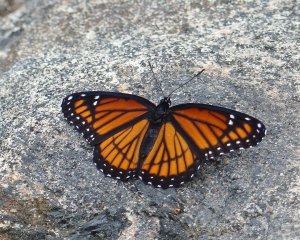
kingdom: Animalia
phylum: Arthropoda
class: Insecta
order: Lepidoptera
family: Nymphalidae
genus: Limenitis
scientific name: Limenitis archippus
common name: Viceroy
